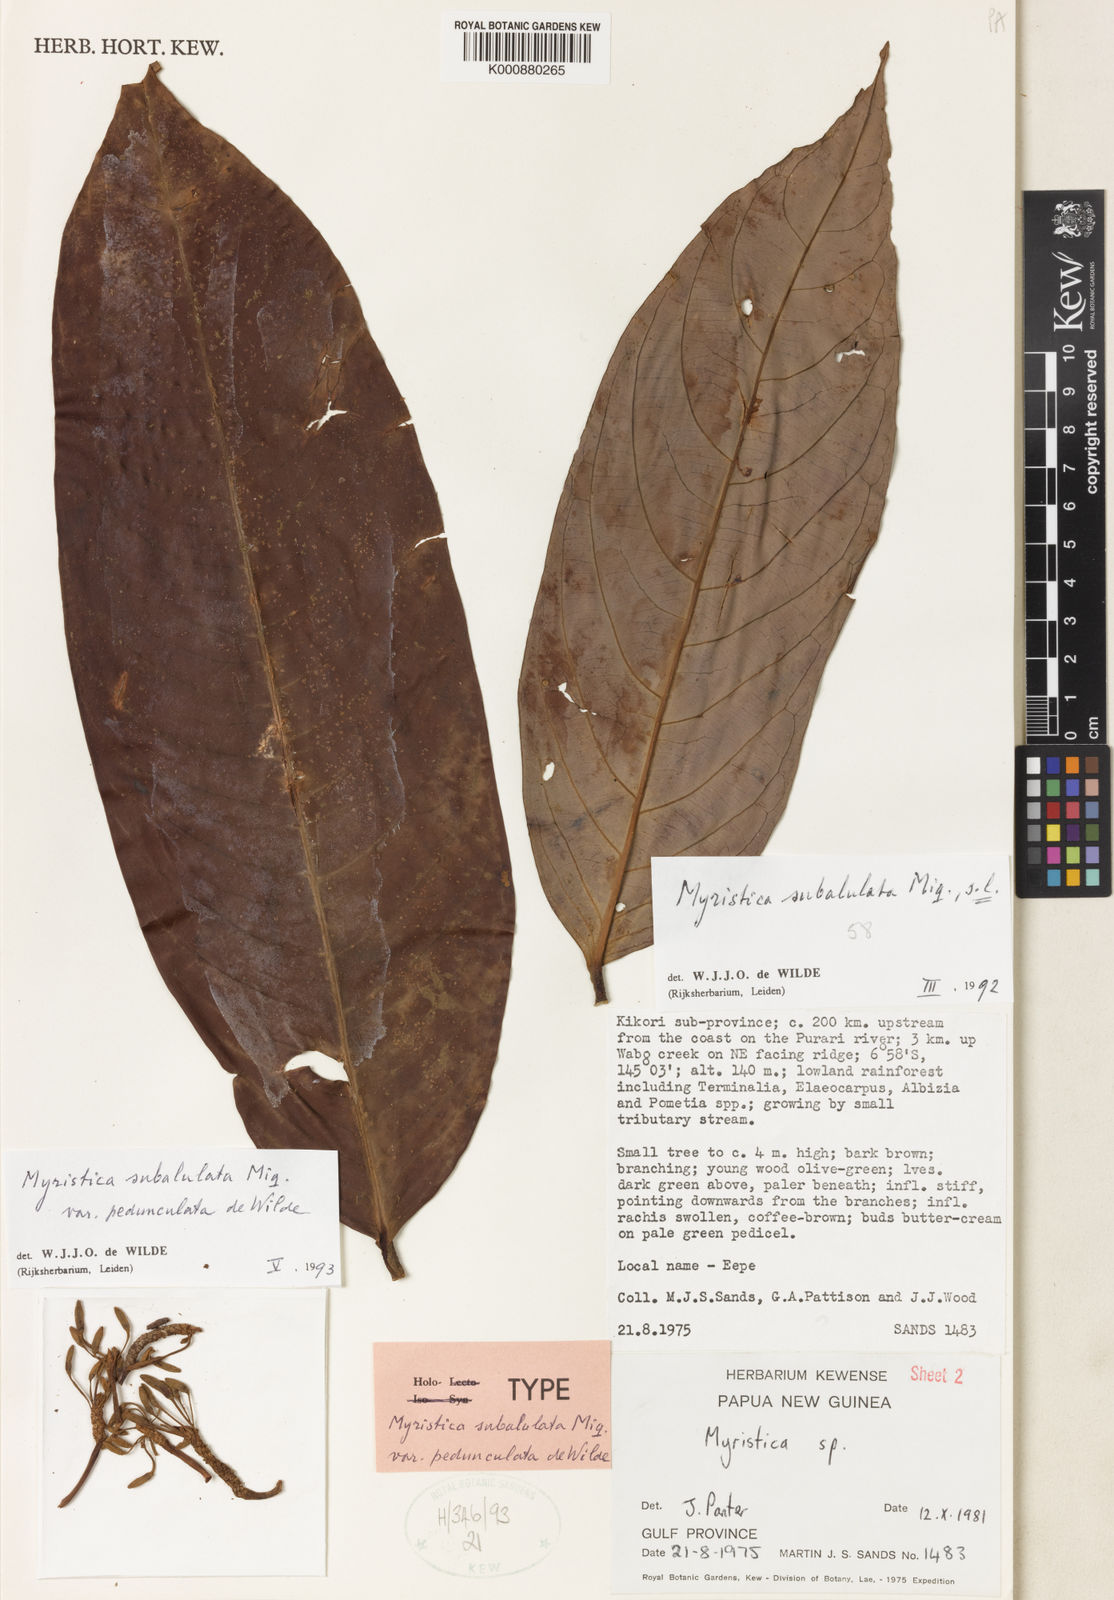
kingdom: Plantae
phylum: Tracheophyta
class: Magnoliopsida
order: Magnoliales
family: Myristicaceae
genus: Myristica
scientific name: Myristica subalulata
